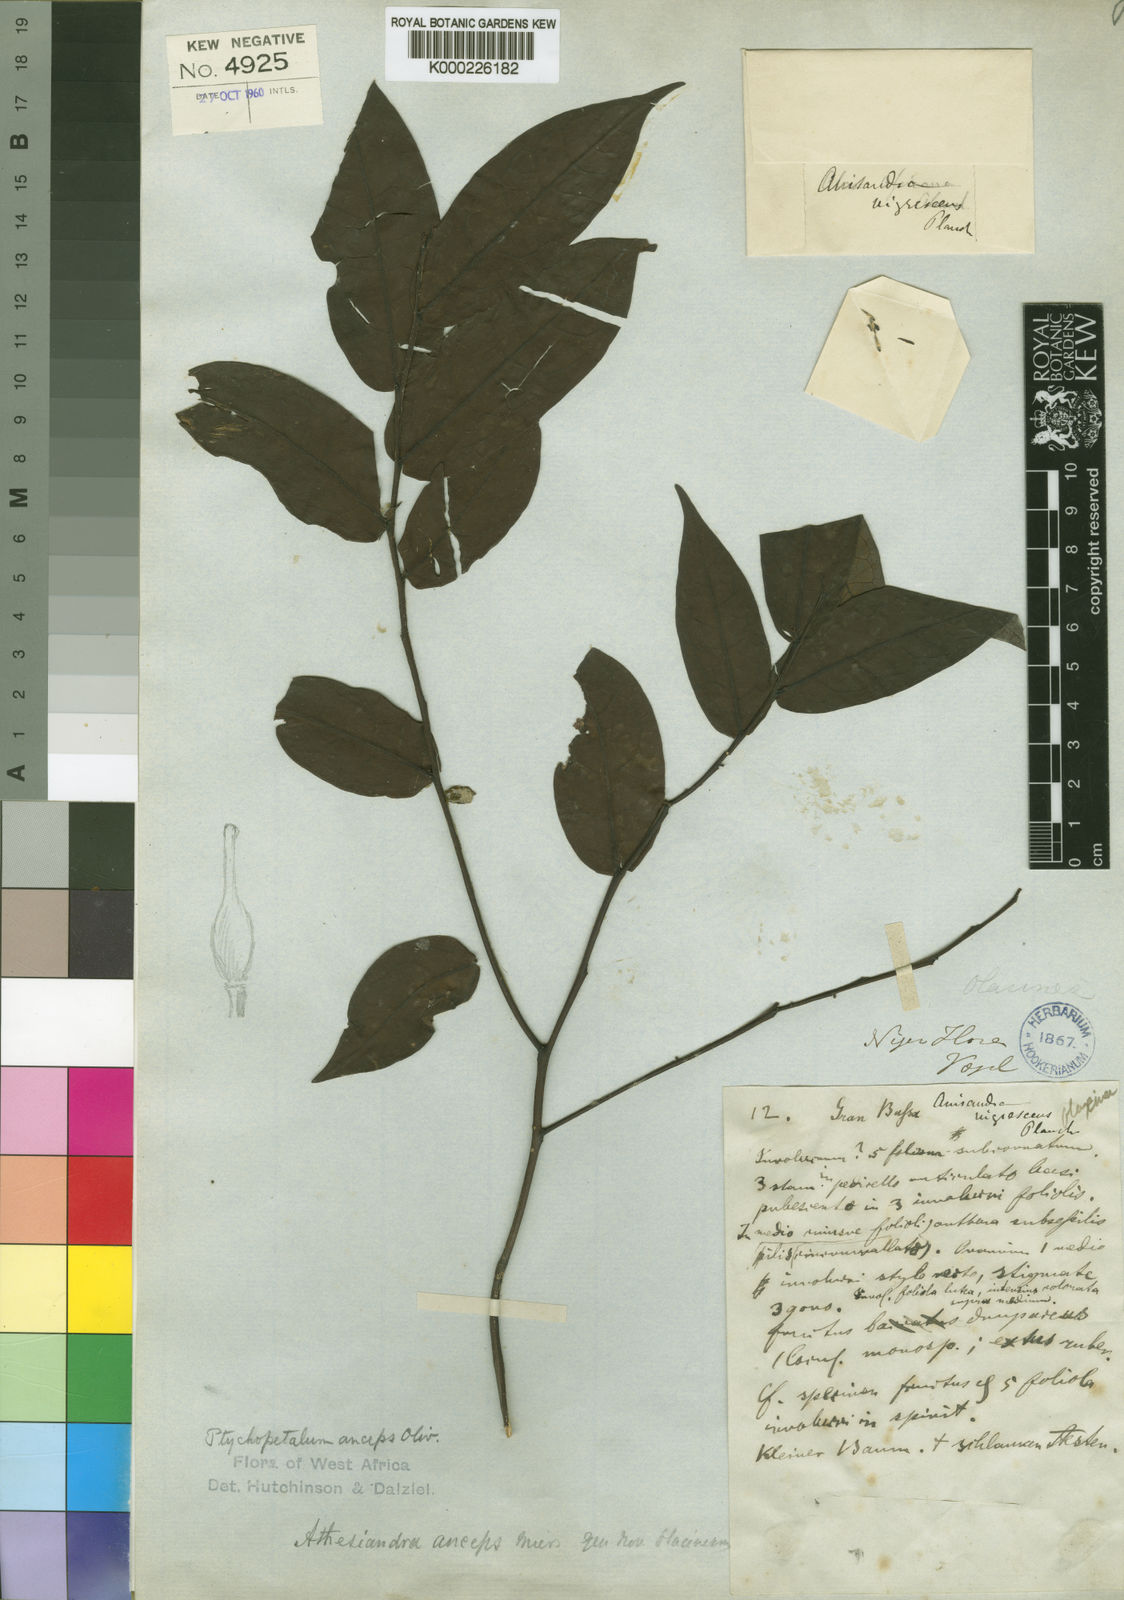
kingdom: Plantae
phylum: Tracheophyta
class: Magnoliopsida
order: Santalales
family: Olacaceae
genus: Ptychopetalum
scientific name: Ptychopetalum anceps
